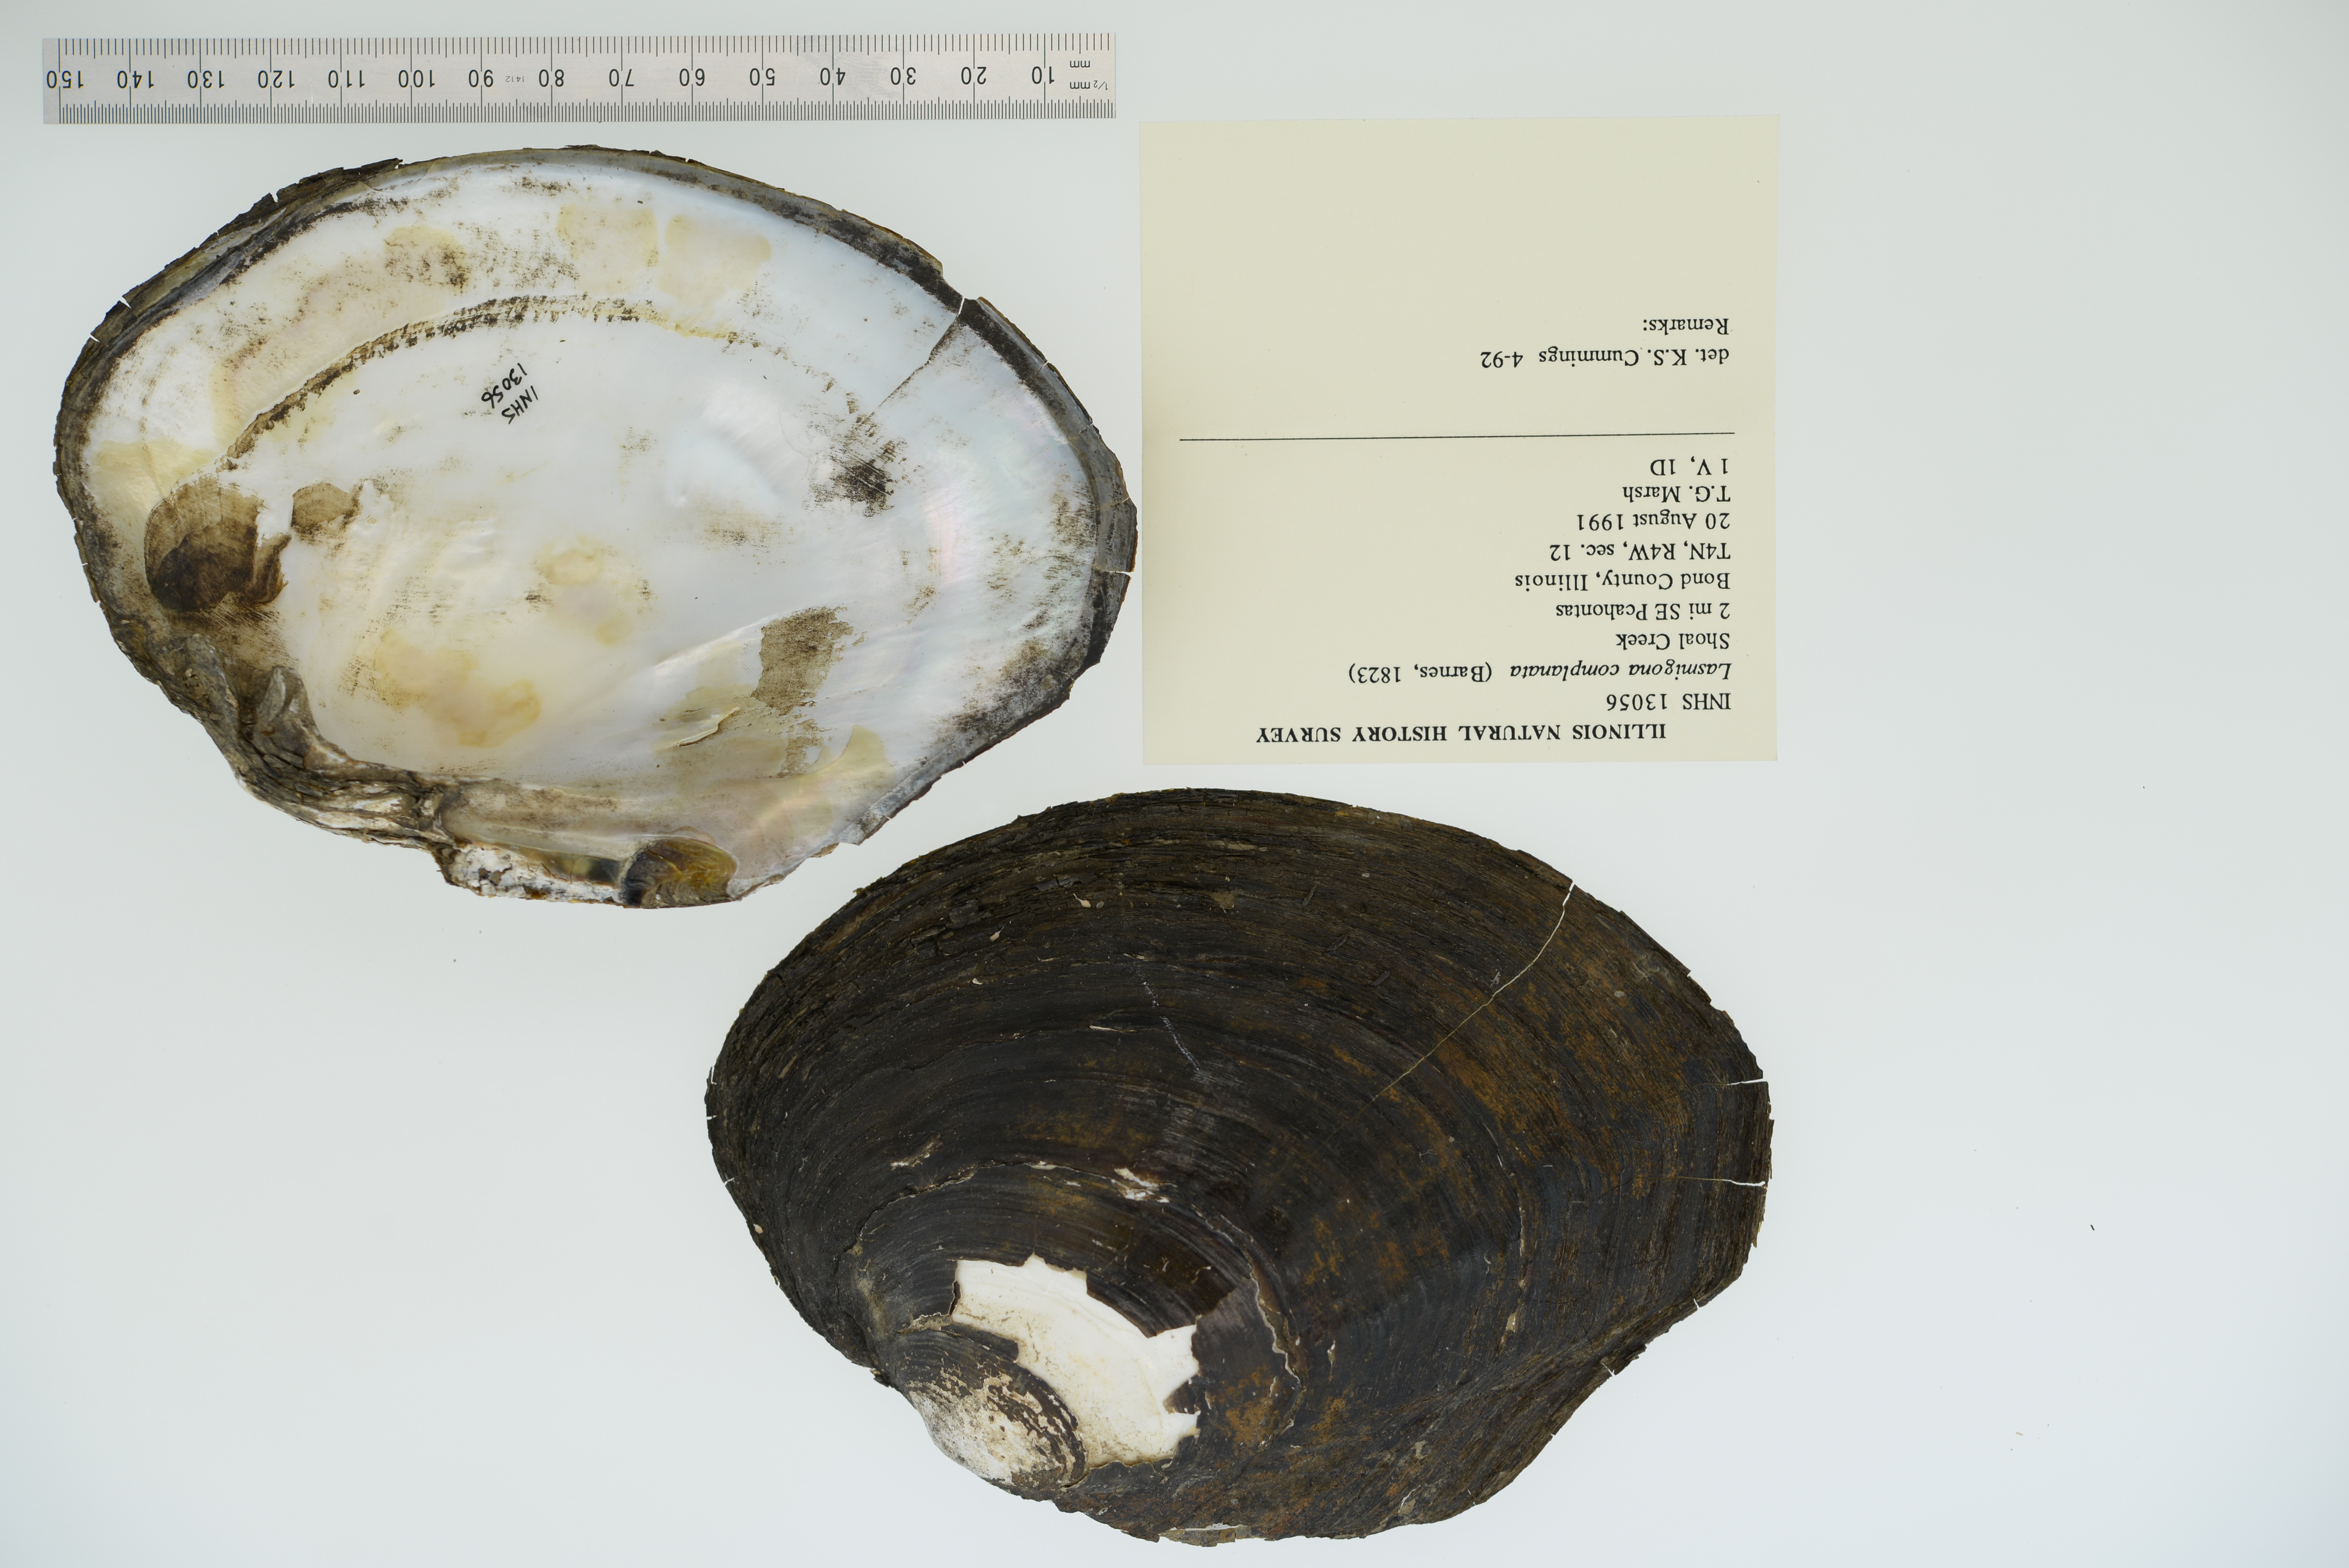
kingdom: Animalia
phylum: Mollusca
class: Bivalvia
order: Unionida
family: Unionidae
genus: Lasmigona
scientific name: Lasmigona complanata
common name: White heelsplitter
